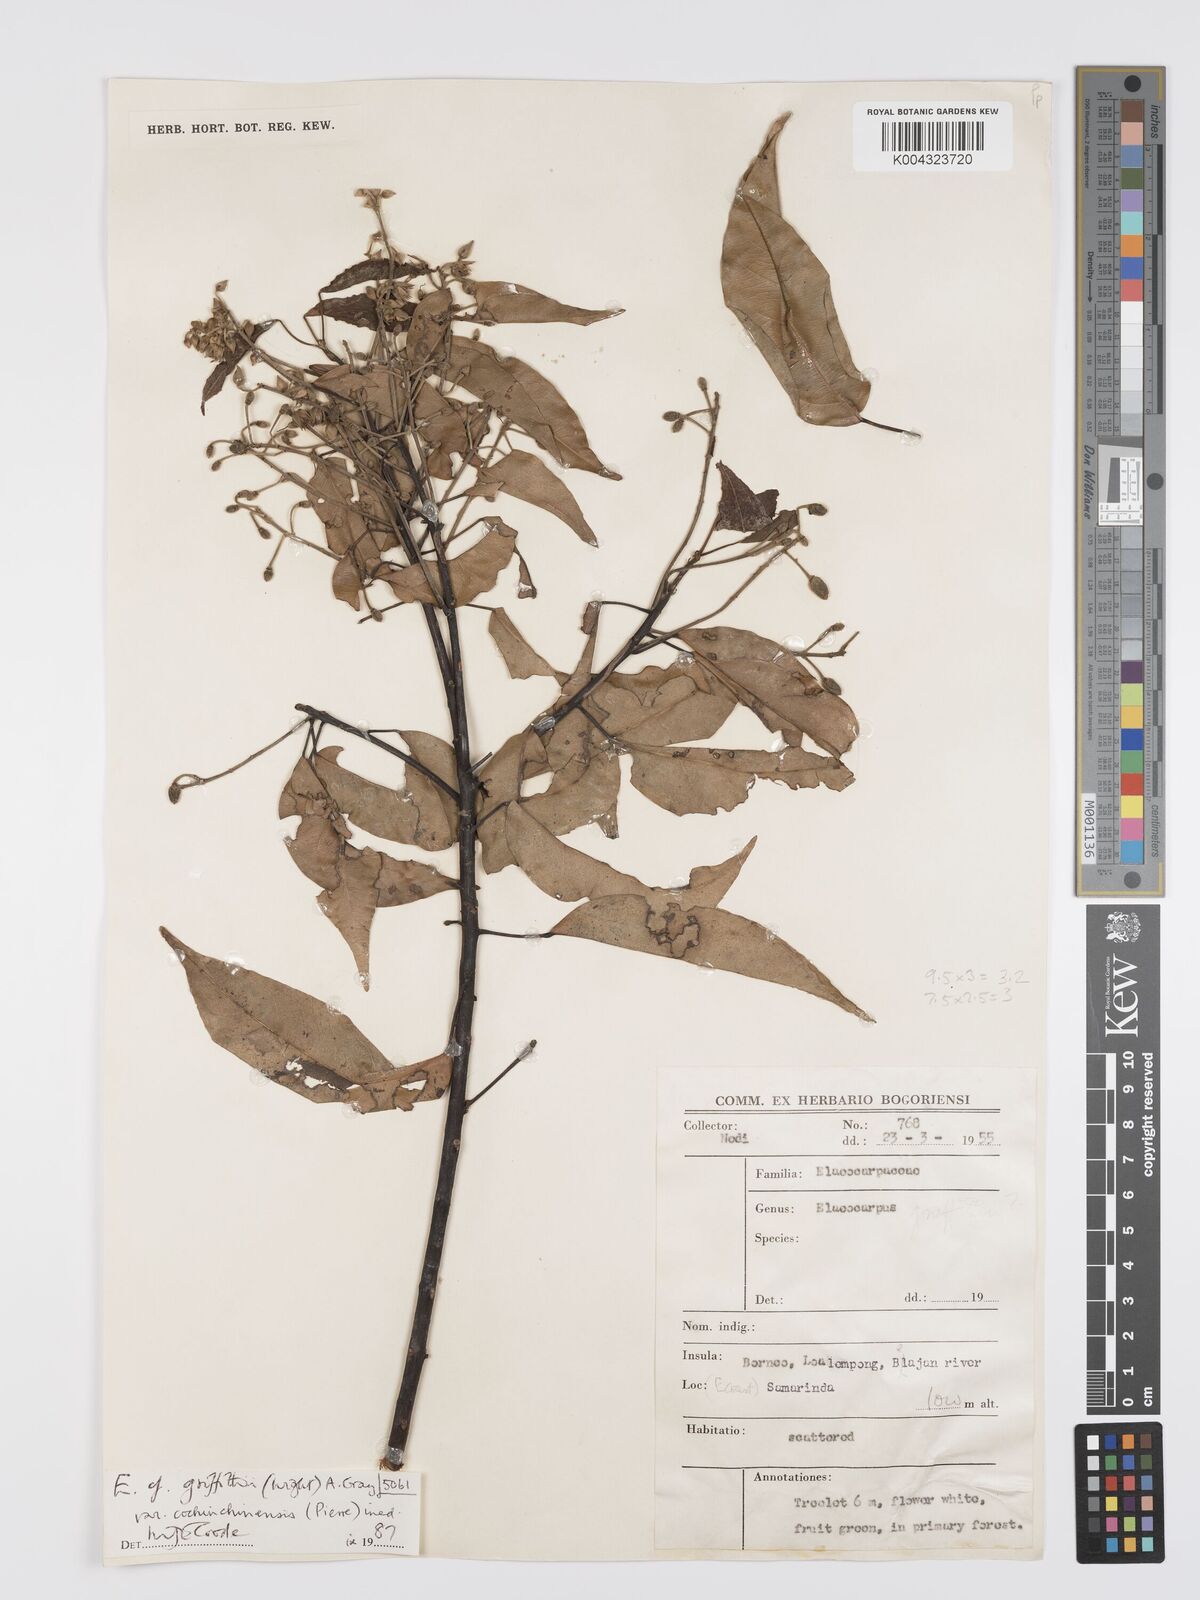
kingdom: Plantae
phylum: Tracheophyta
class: Magnoliopsida
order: Oxalidales
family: Elaeocarpaceae
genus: Elaeocarpus
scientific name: Elaeocarpus griffithii
